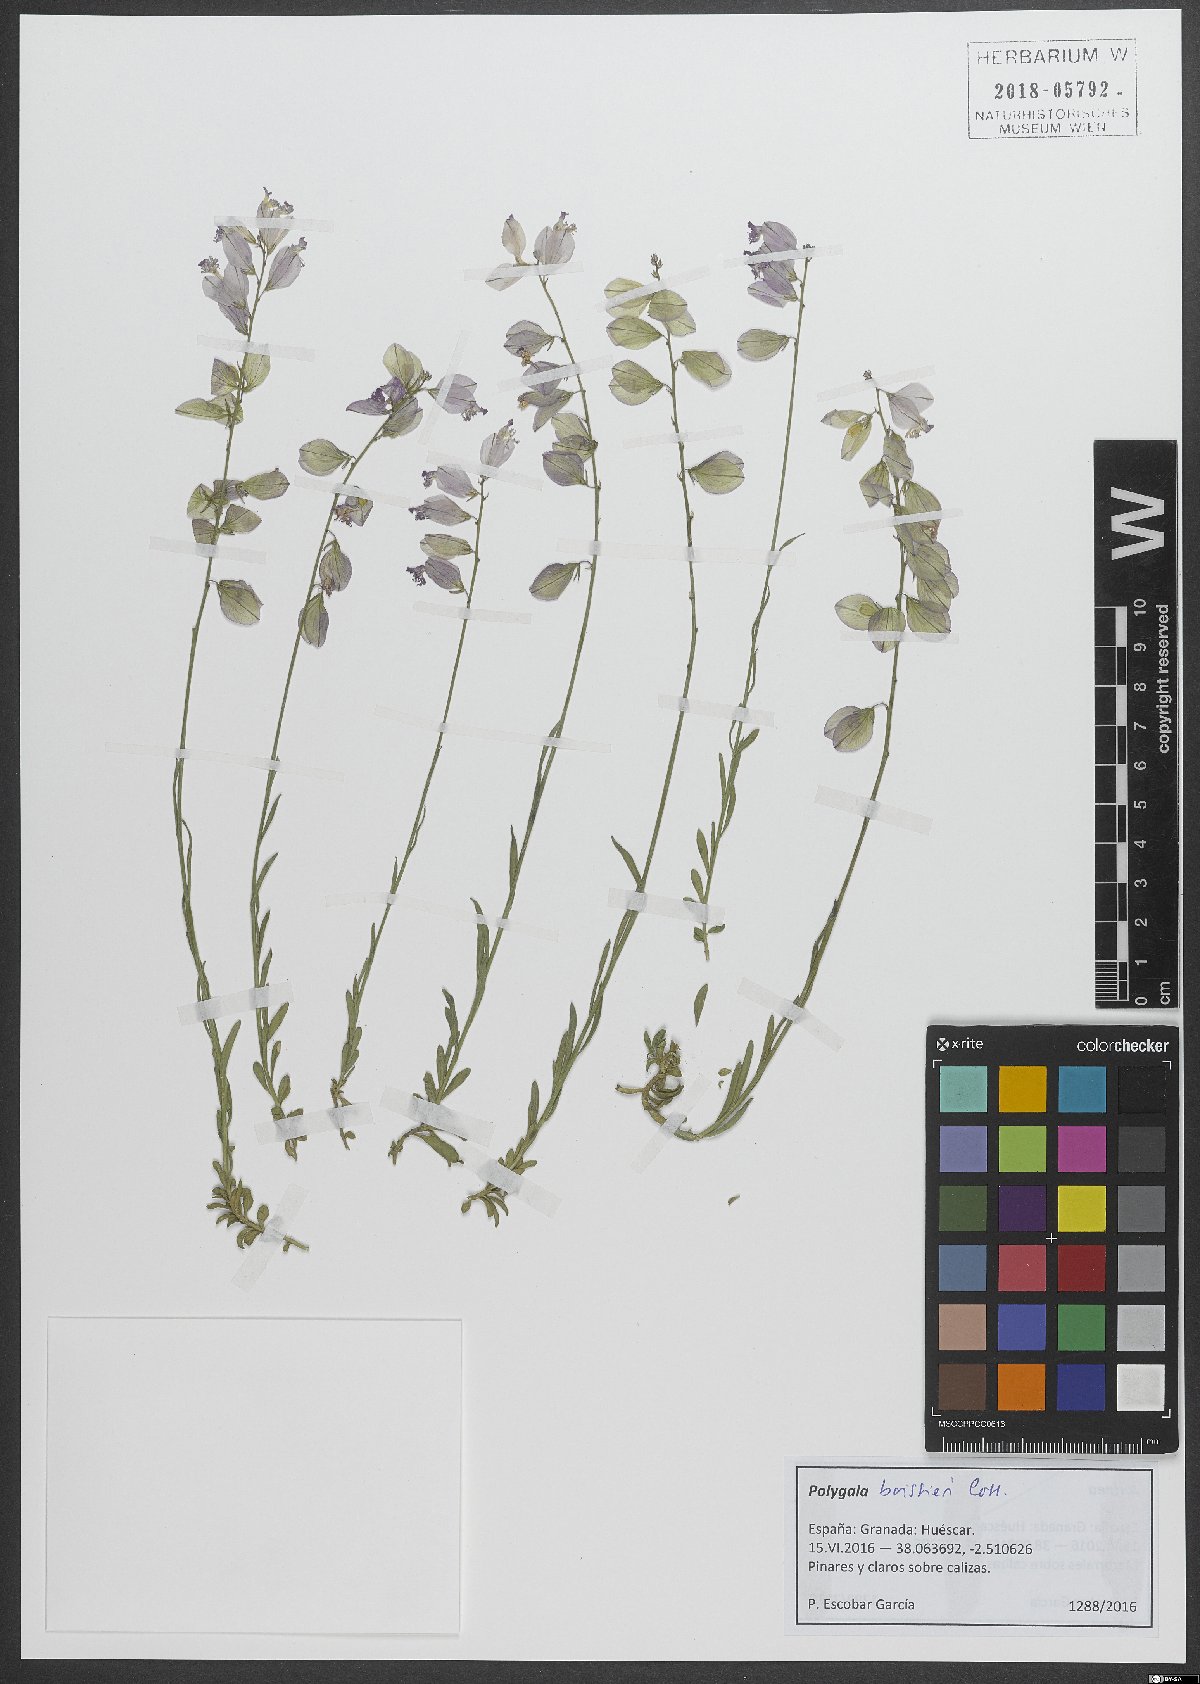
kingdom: Plantae
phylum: Tracheophyta
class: Magnoliopsida
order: Fabales
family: Polygalaceae
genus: Polygala
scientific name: Polygala boissieri
